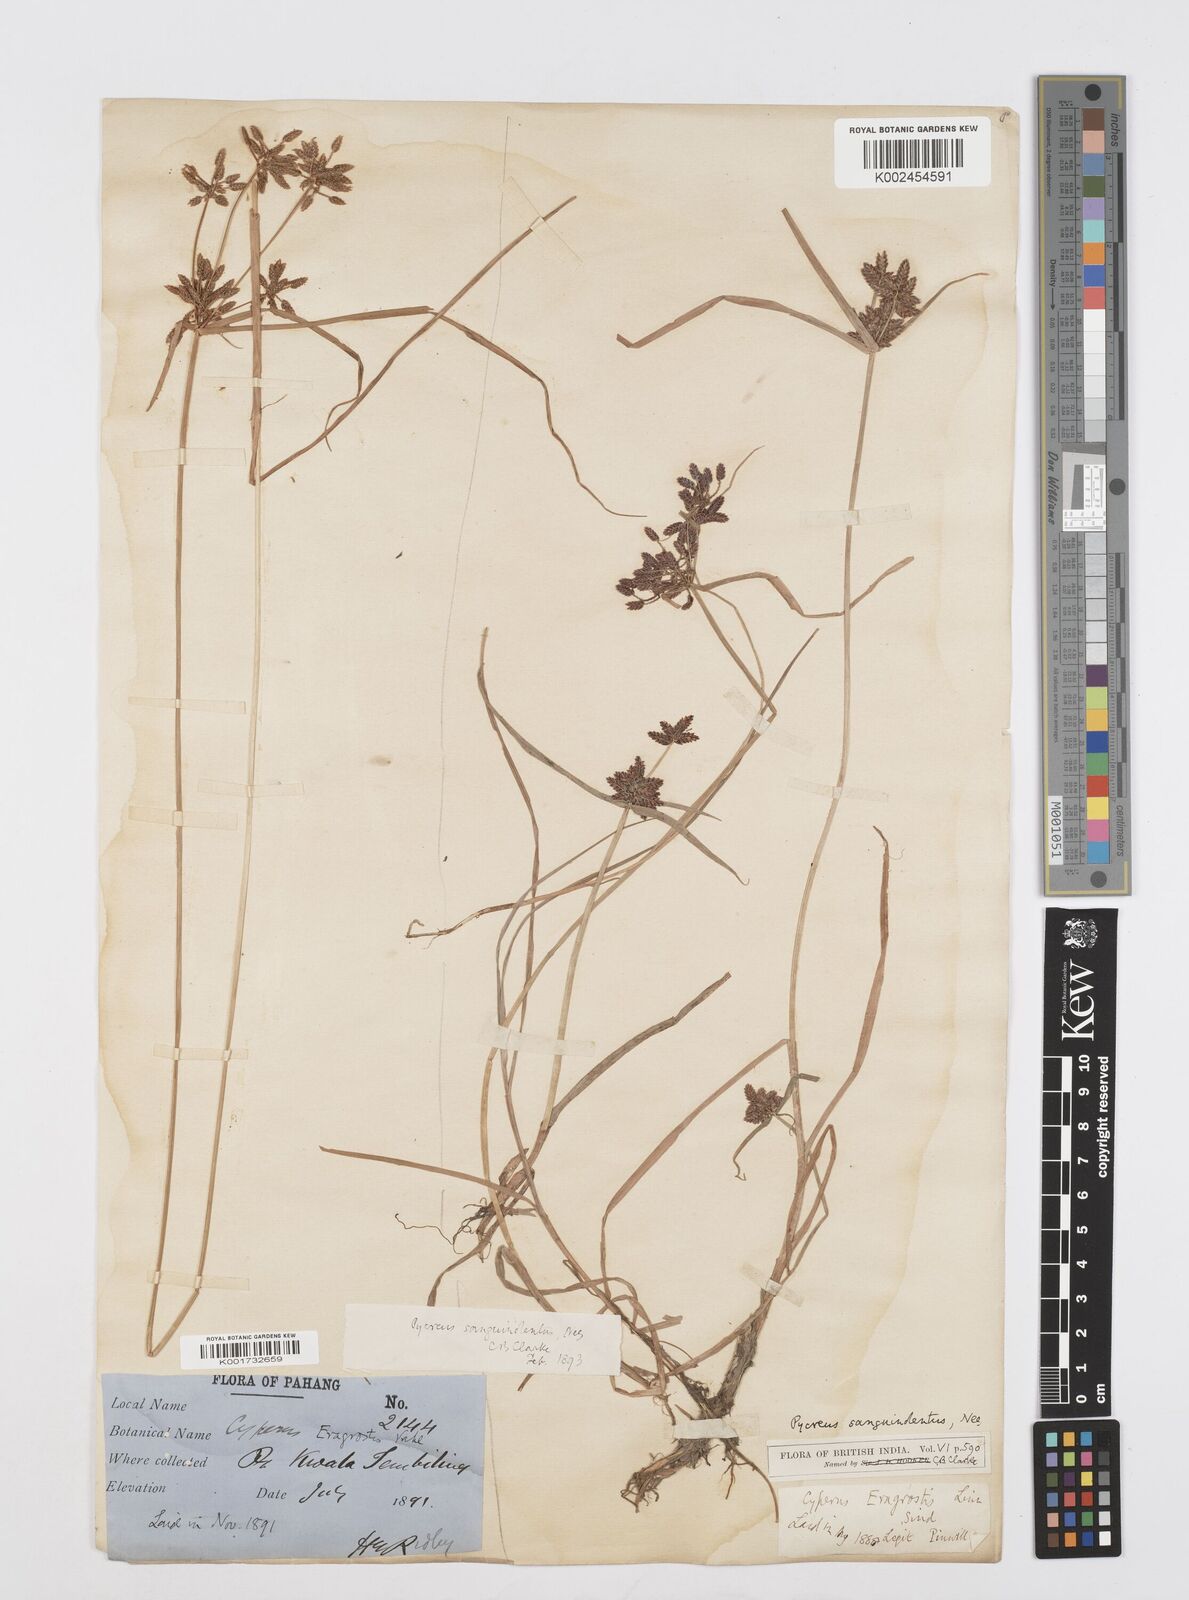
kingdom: Plantae
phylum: Tracheophyta
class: Liliopsida
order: Poales
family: Cyperaceae
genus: Cyperus
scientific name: Cyperus sanguinolentus
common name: Purpleglume flatsedge
